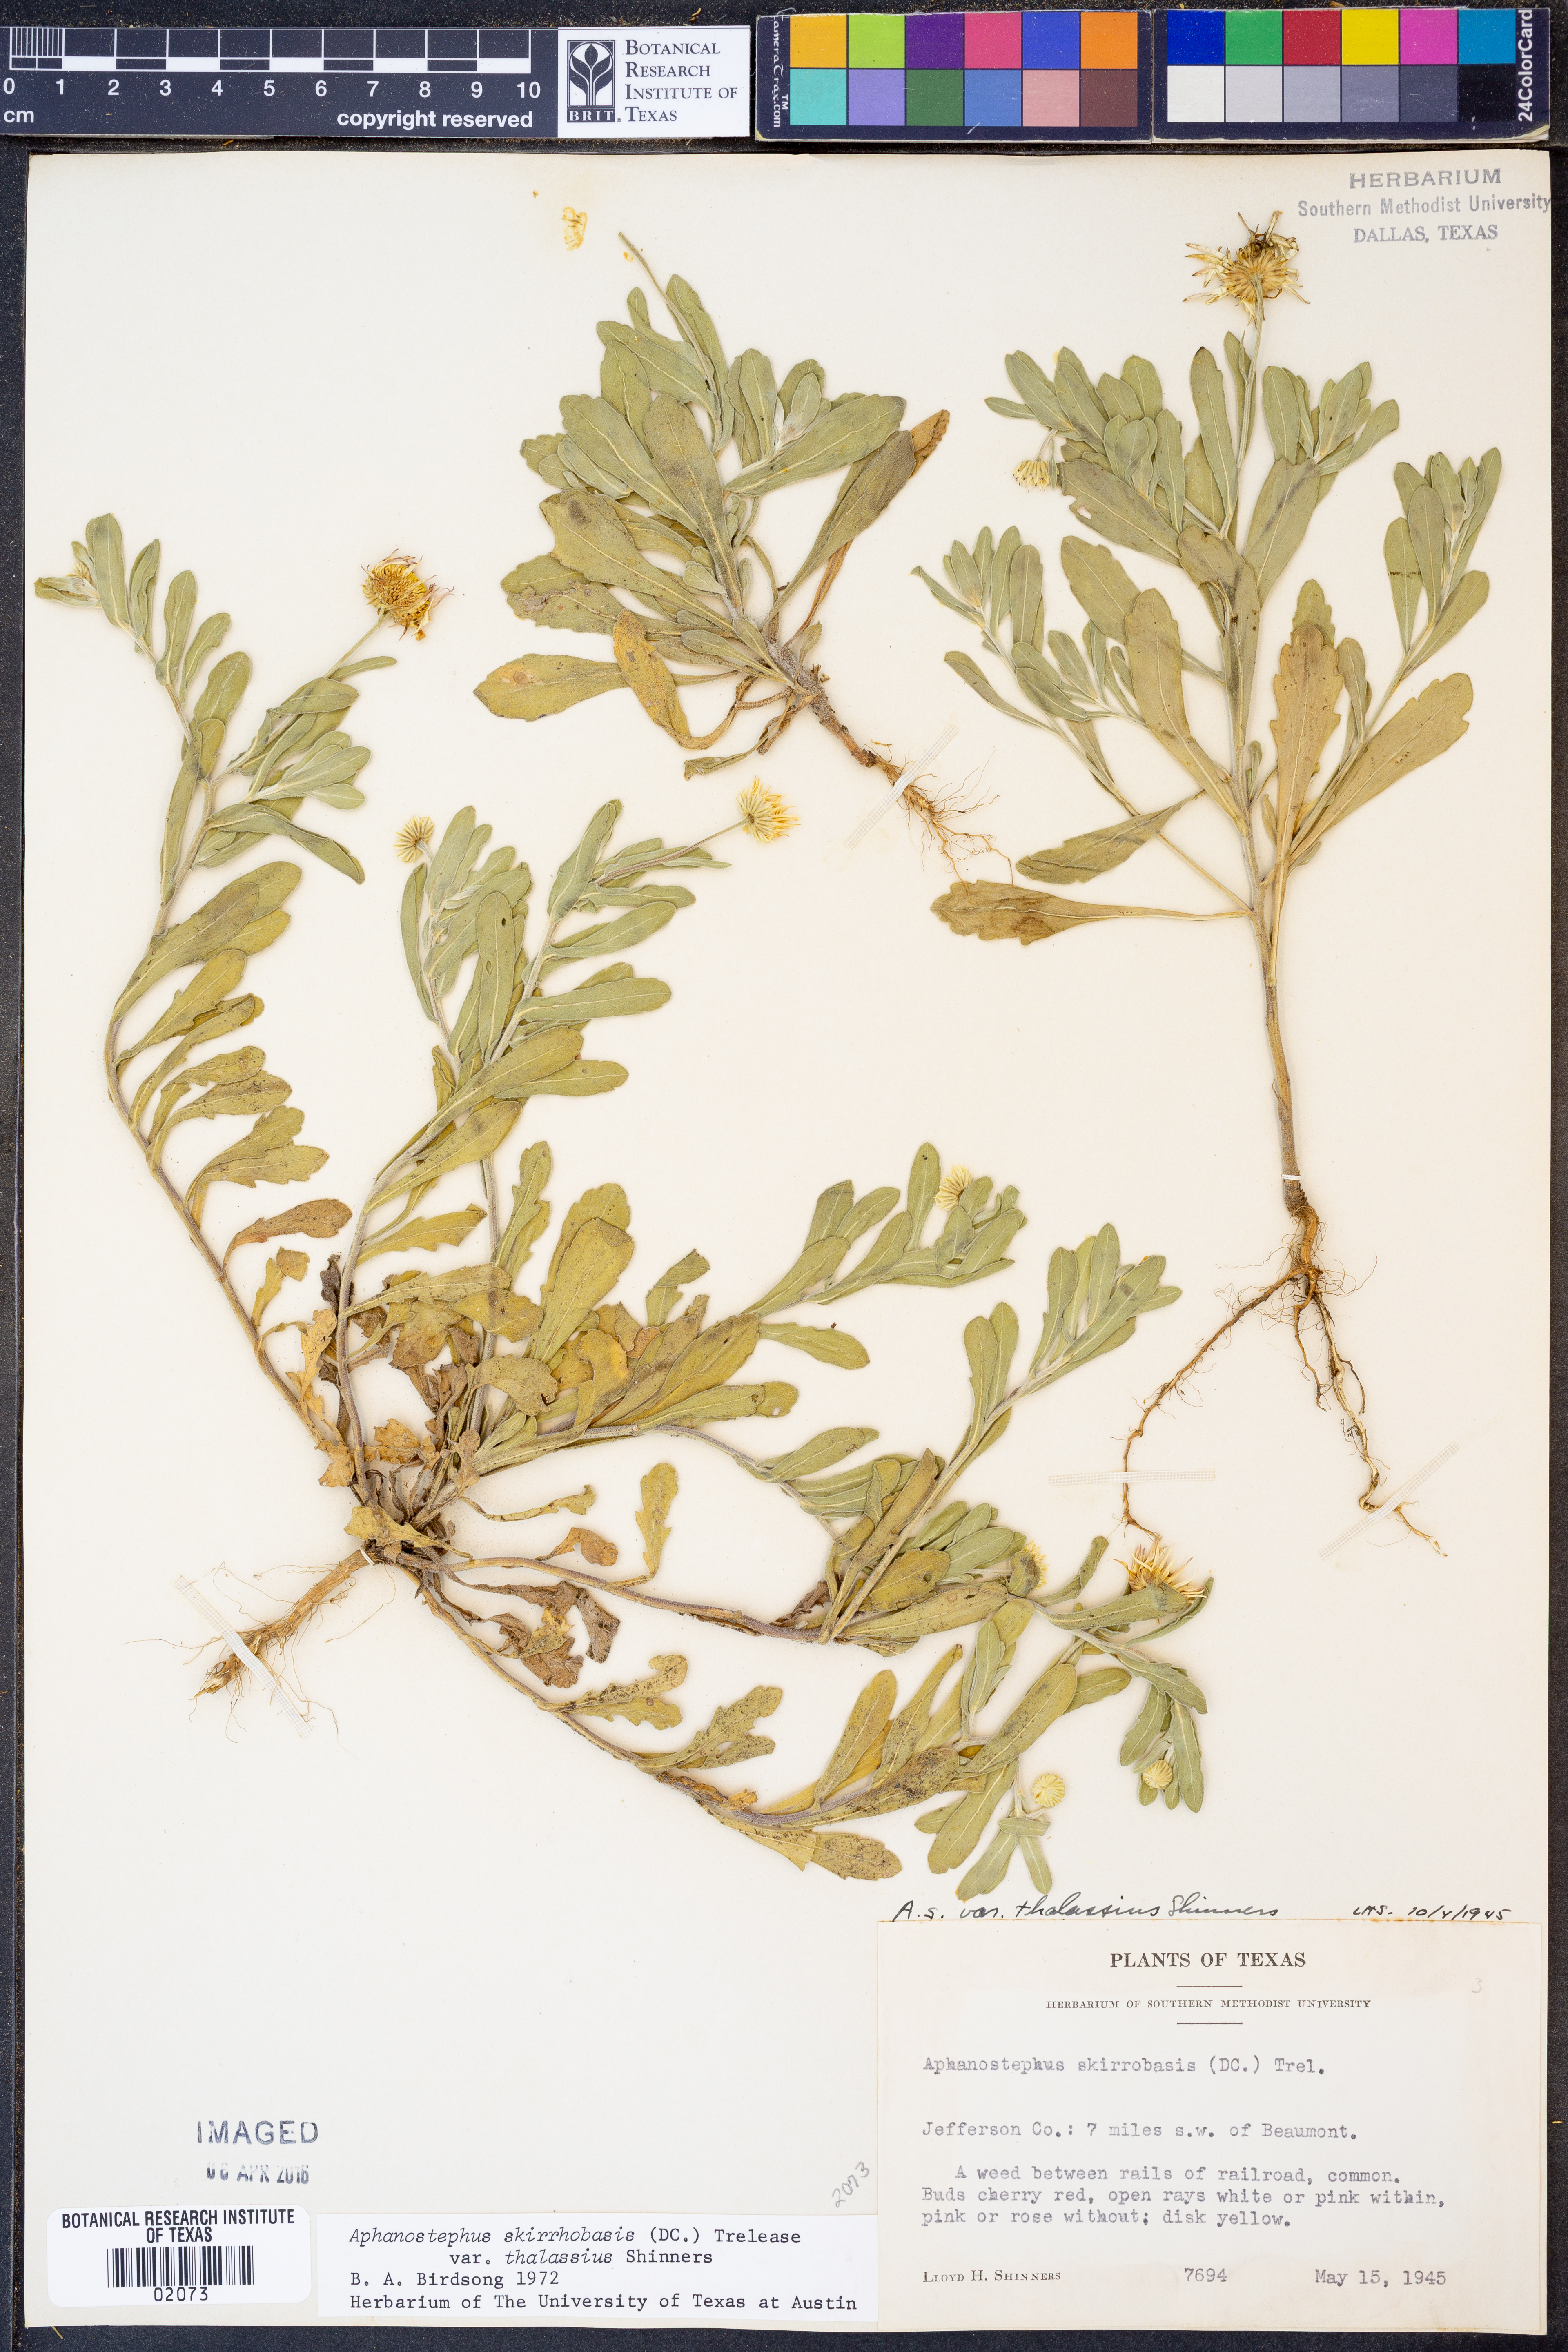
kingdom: Plantae
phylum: Tracheophyta
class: Magnoliopsida
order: Asterales
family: Asteraceae
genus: Aphanostephus
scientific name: Aphanostephus skirrhobasis
